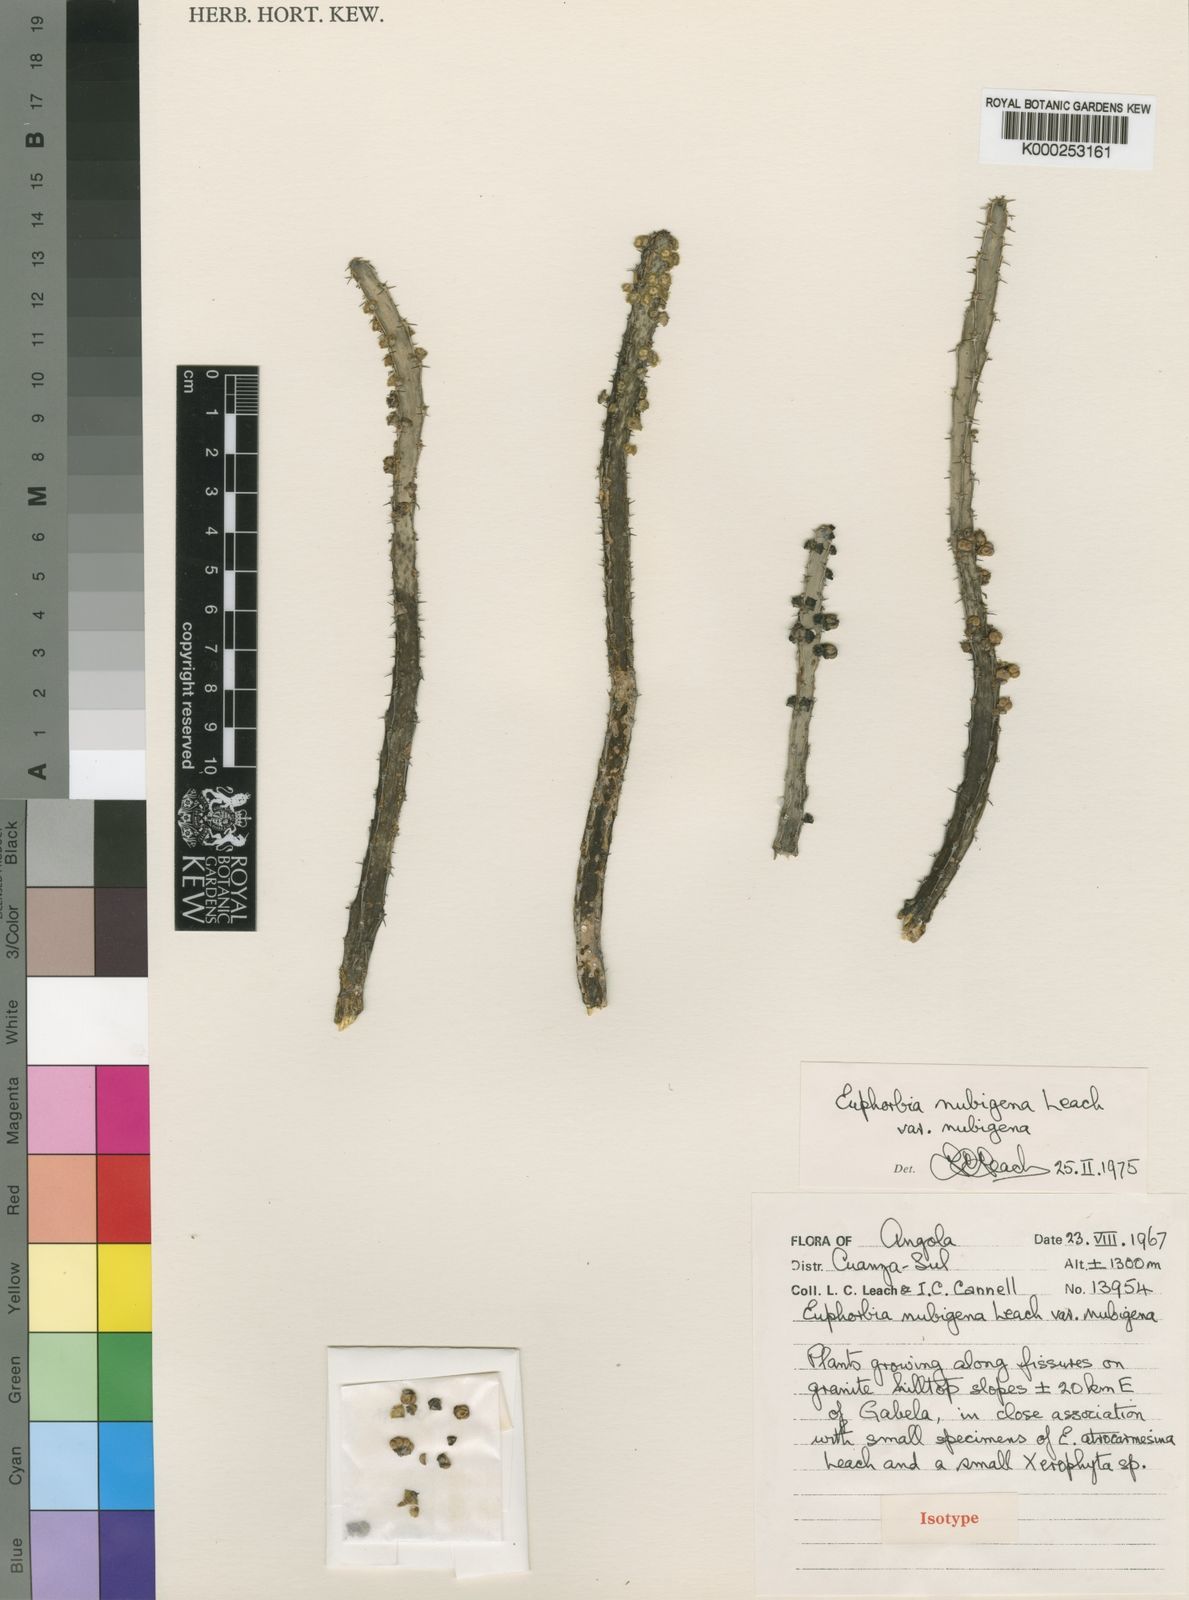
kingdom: Plantae
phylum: Tracheophyta
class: Magnoliopsida
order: Malpighiales
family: Euphorbiaceae
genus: Euphorbia
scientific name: Euphorbia nubigena
